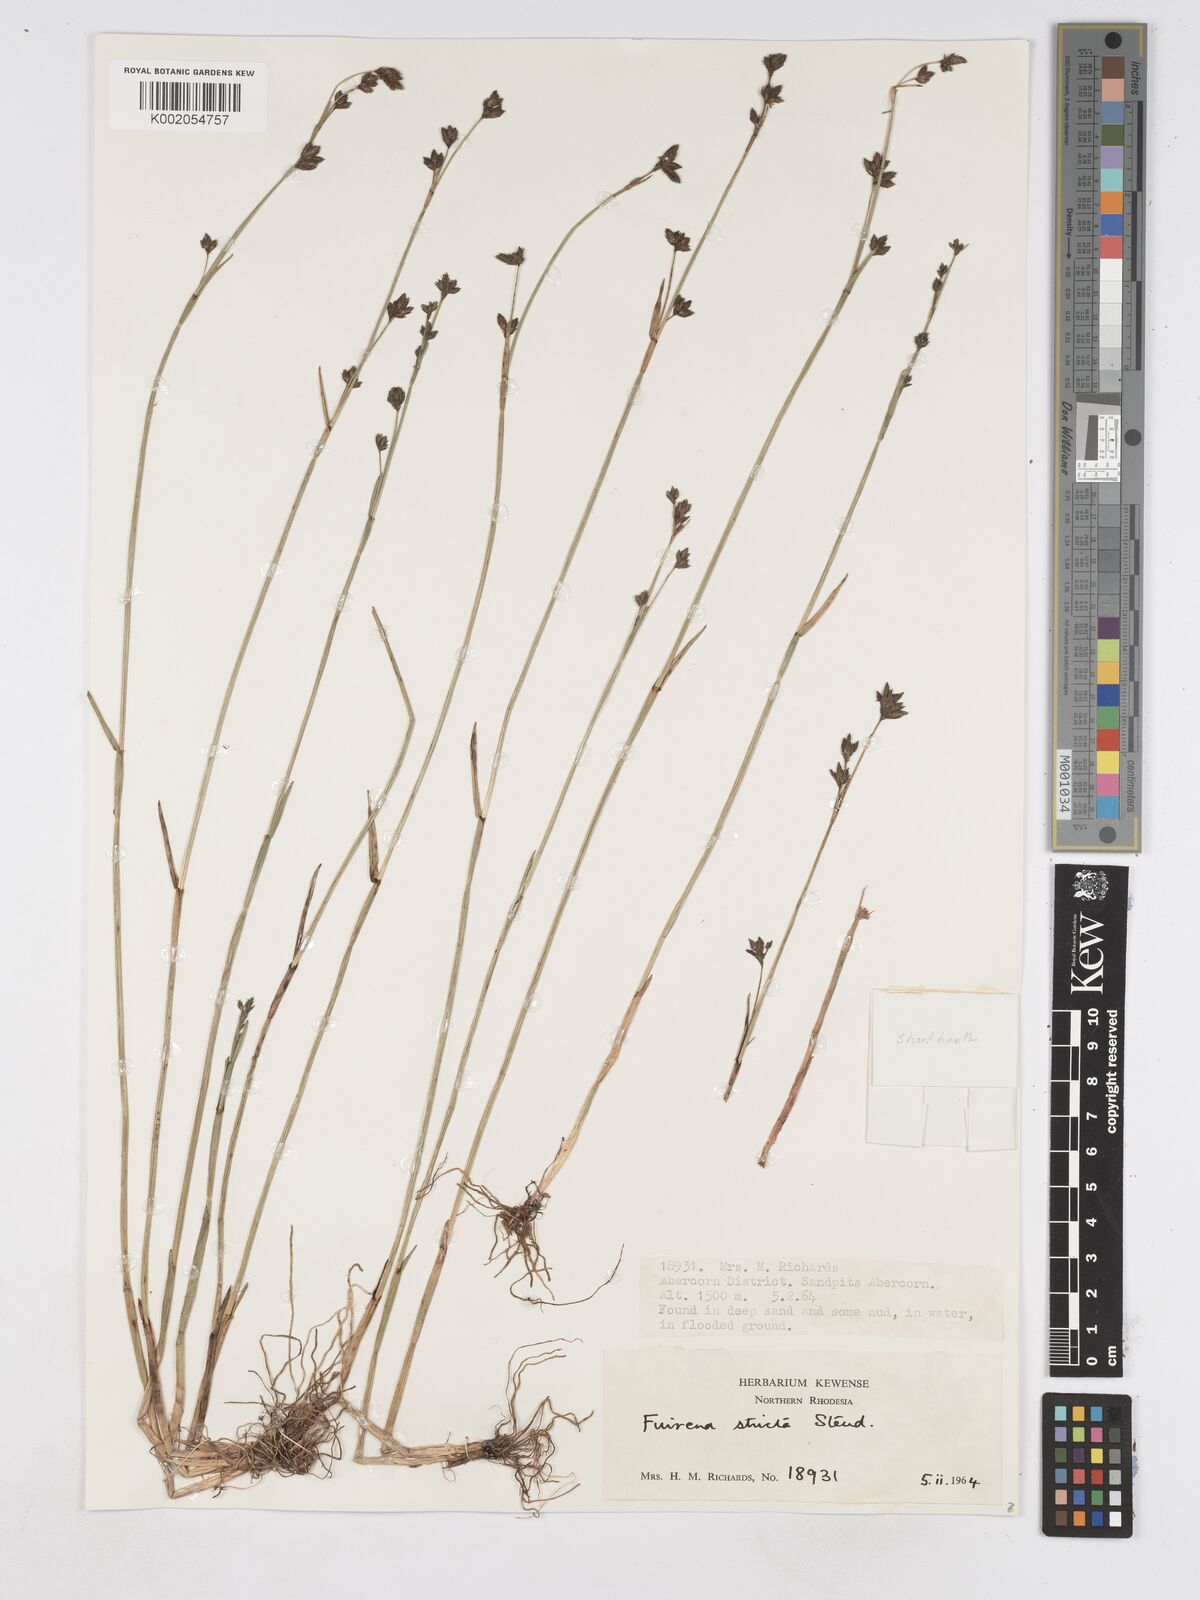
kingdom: Plantae
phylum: Tracheophyta
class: Liliopsida
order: Poales
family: Cyperaceae
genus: Fuirena
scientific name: Fuirena stricta
